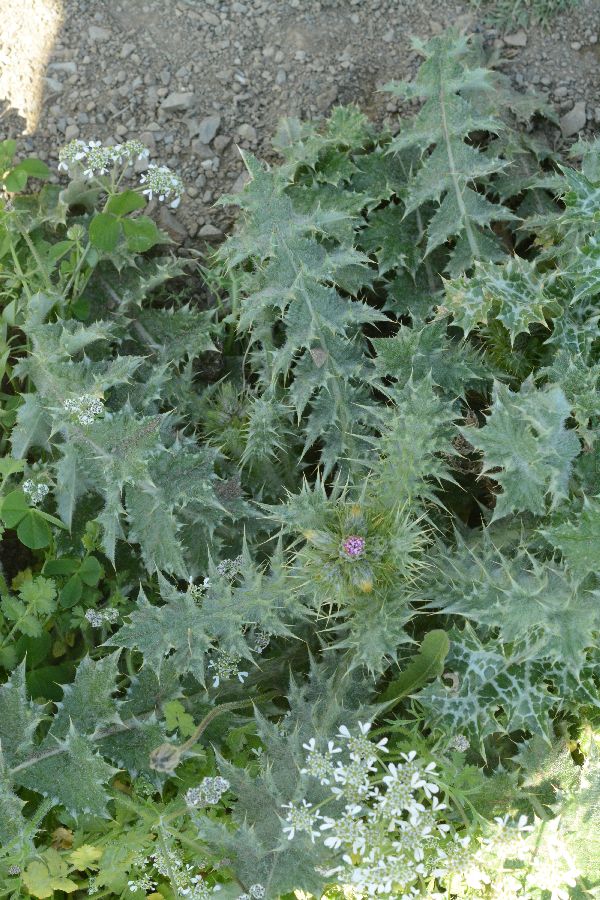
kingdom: Plantae
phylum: Tracheophyta
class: Magnoliopsida
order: Asterales
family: Asteraceae
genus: Carduus
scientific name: Carduus pycnocephalus
